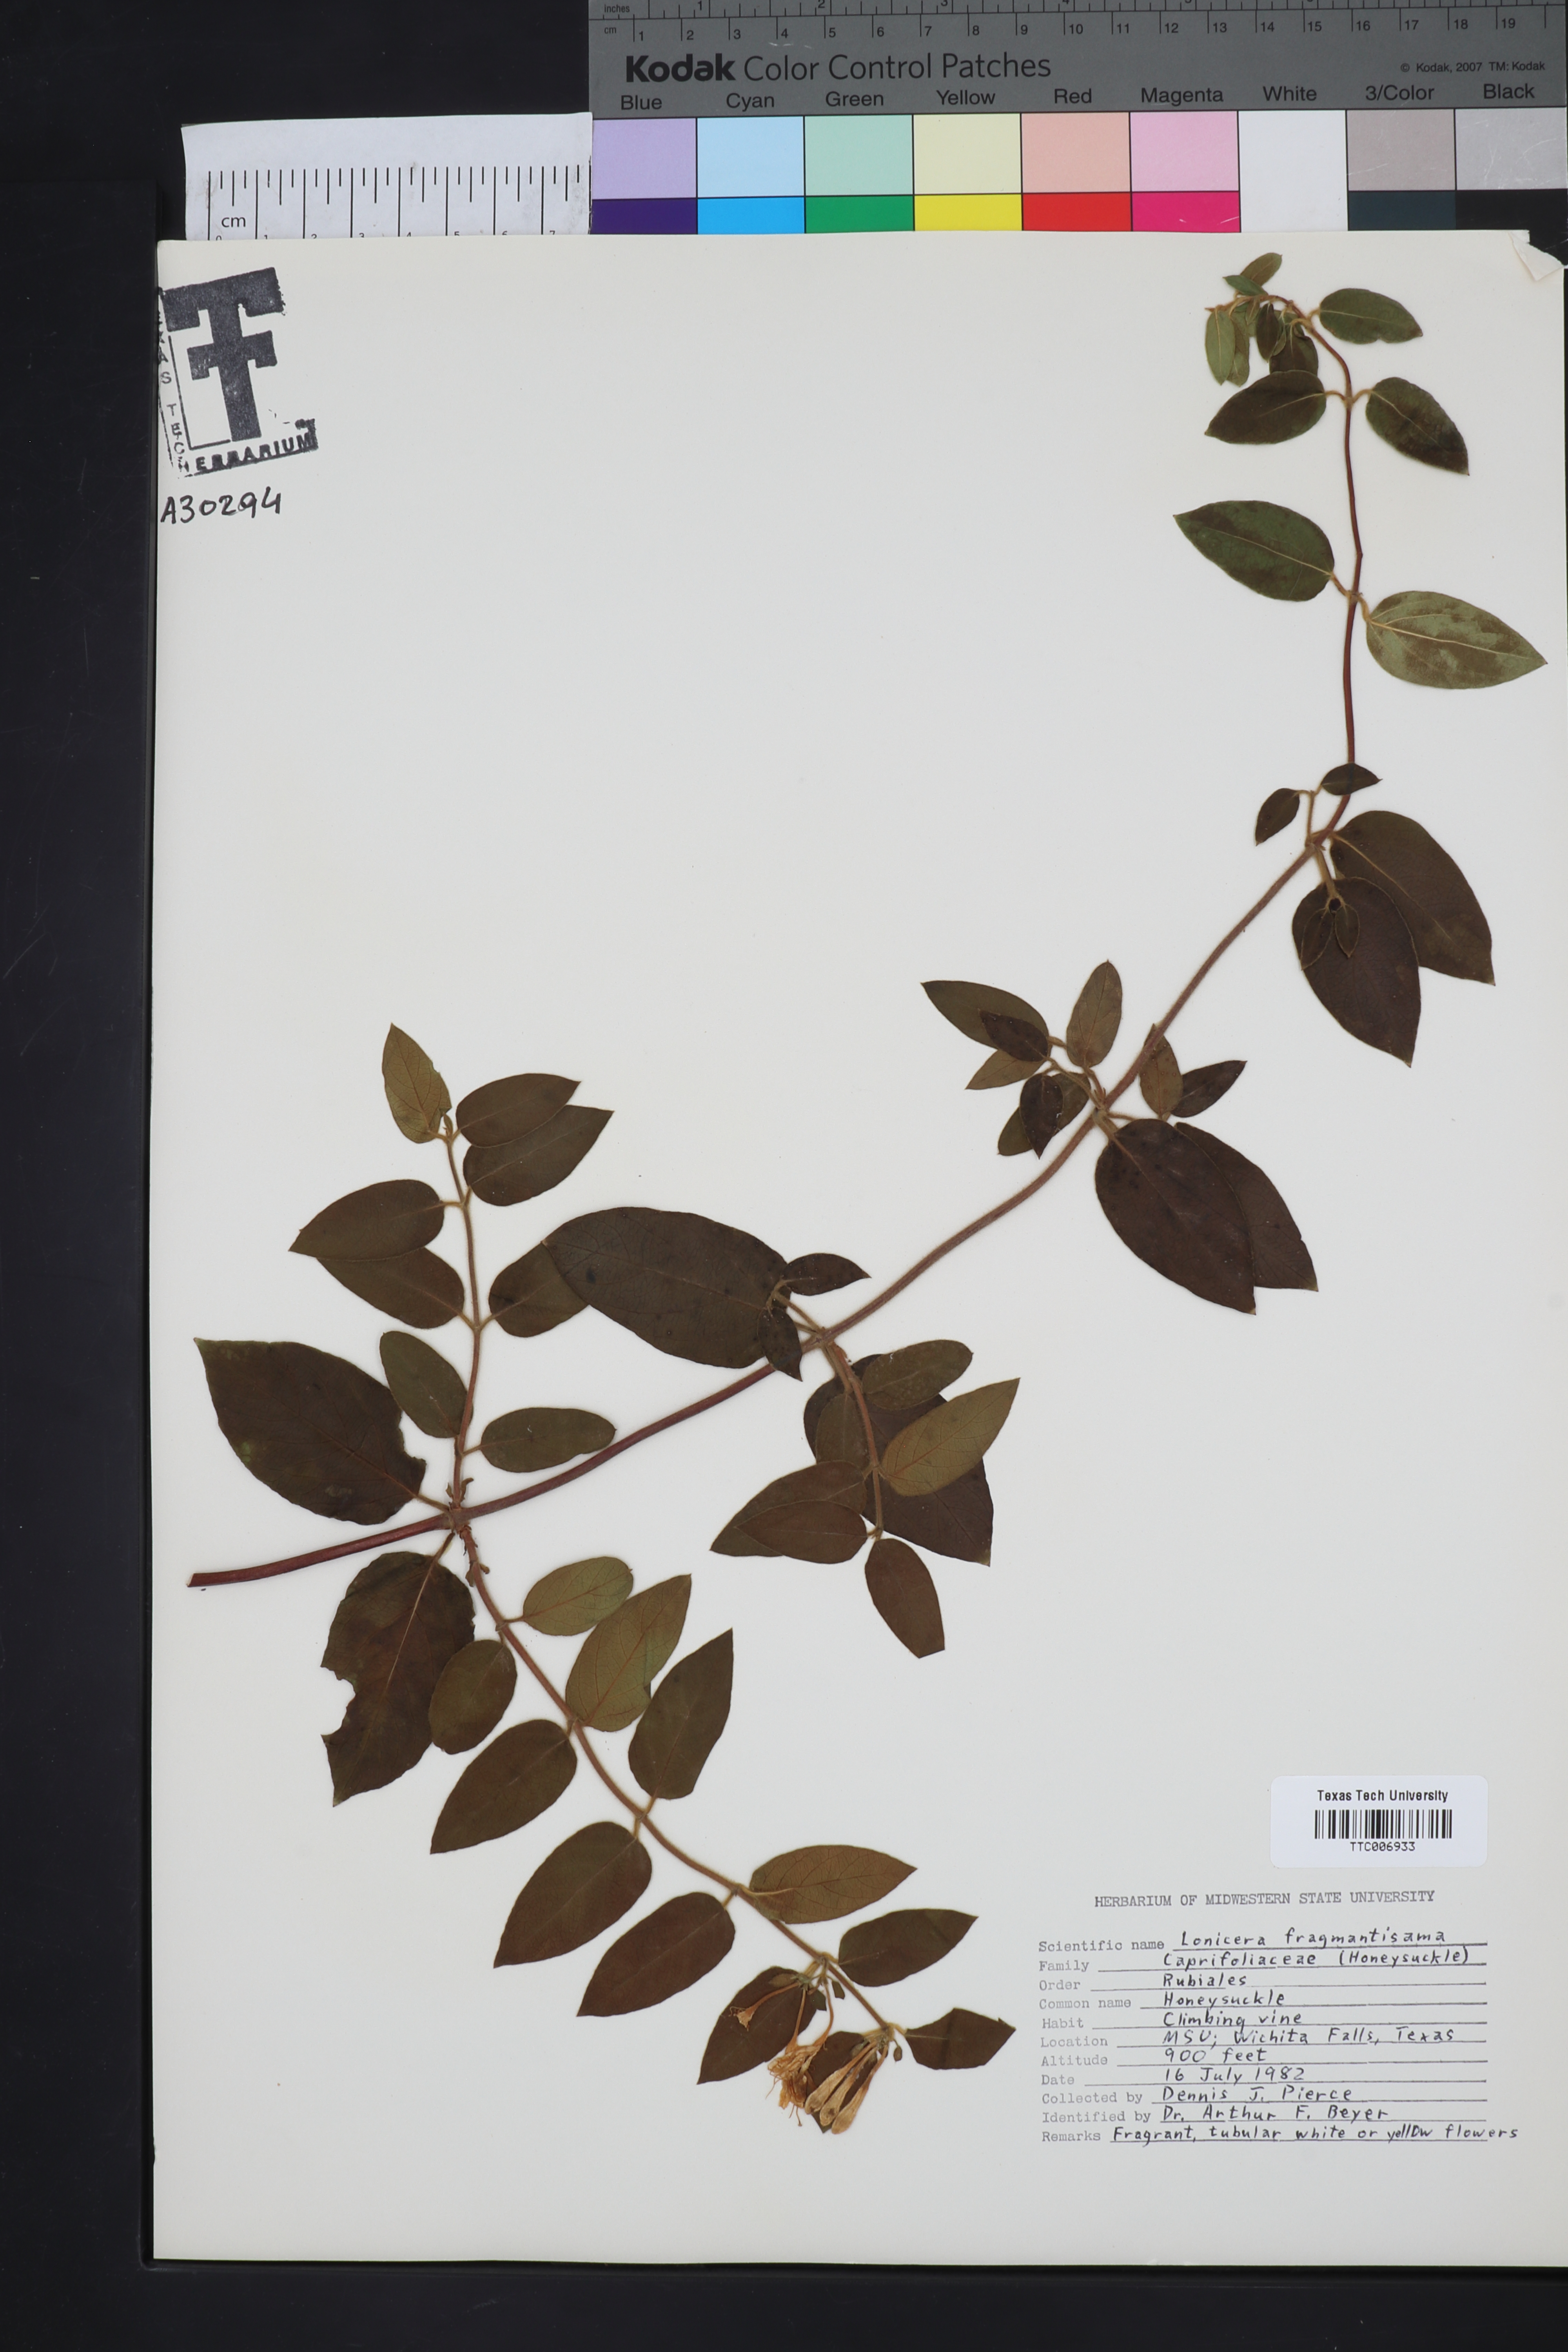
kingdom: Plantae
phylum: Tracheophyta
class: Magnoliopsida
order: Dipsacales
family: Caprifoliaceae
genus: Lonicera
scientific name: Lonicera fragrantissima
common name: Fragrant honeysuckle
